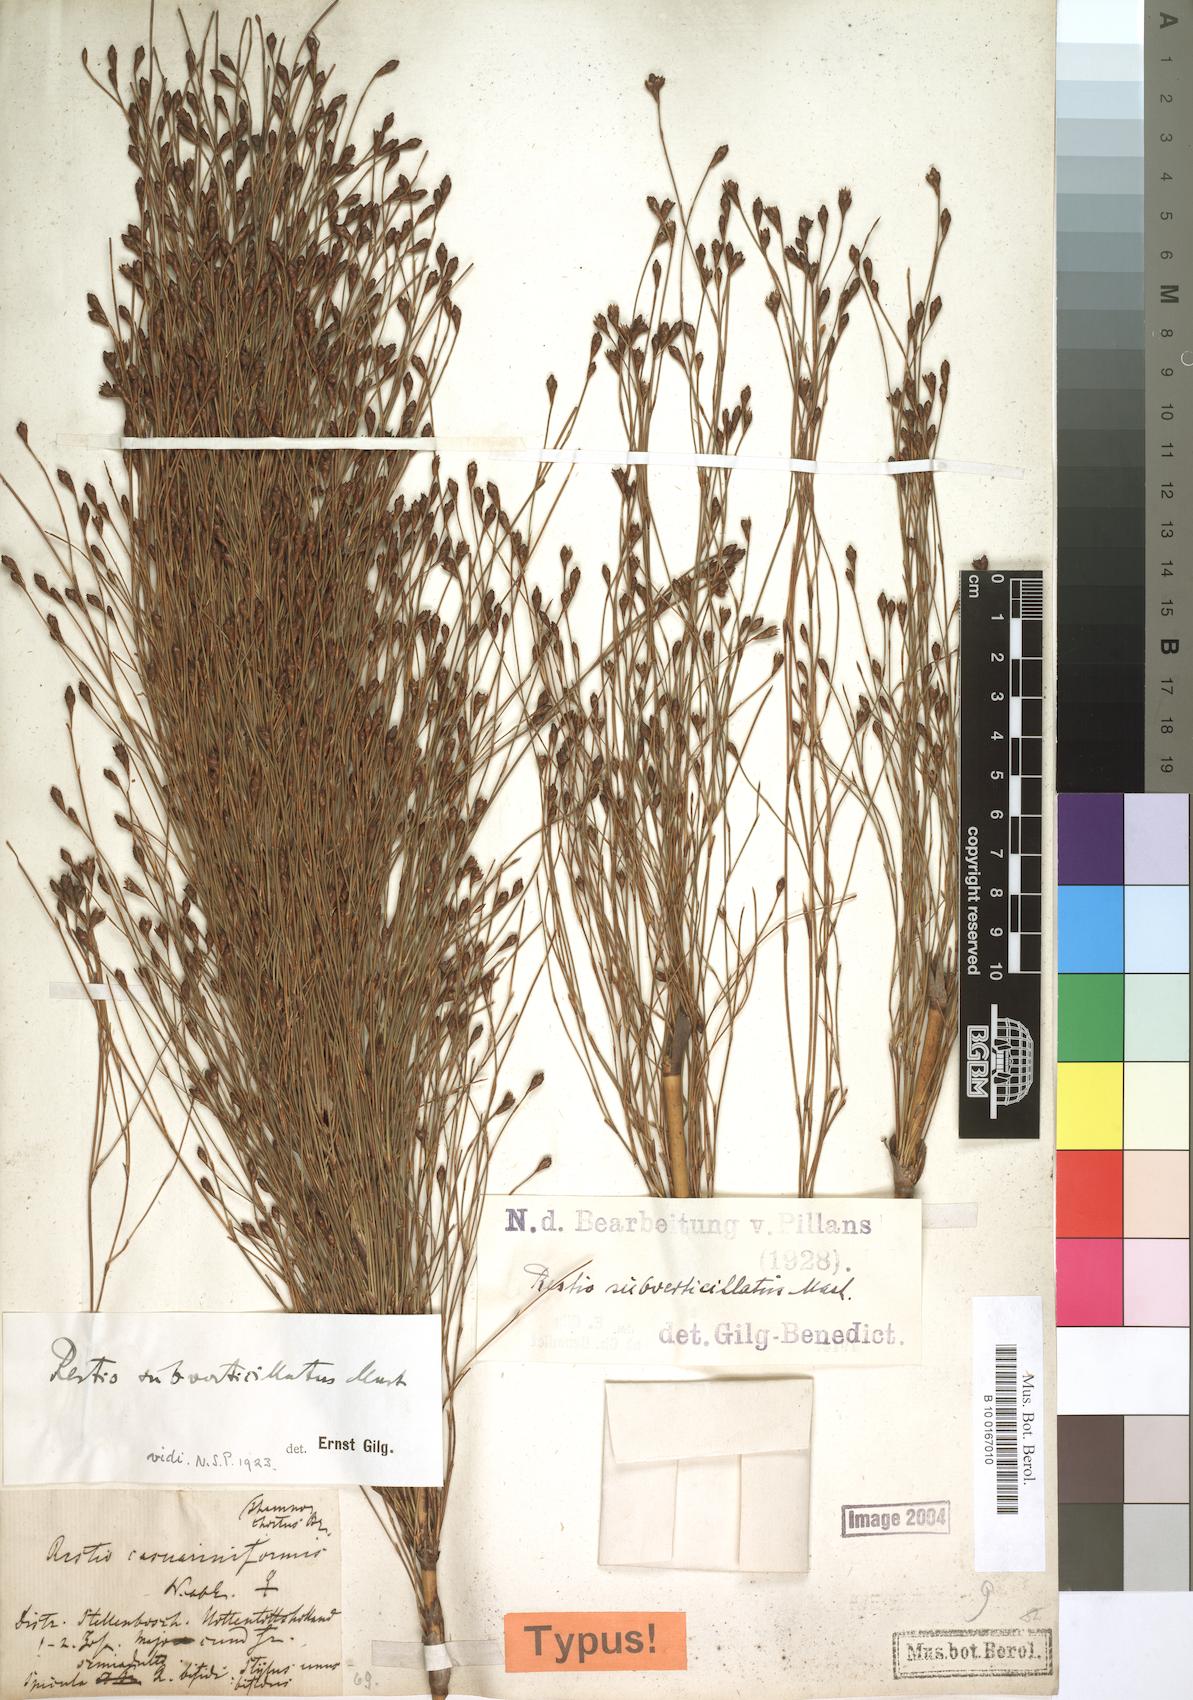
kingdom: Plantae
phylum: Tracheophyta
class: Liliopsida
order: Poales
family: Restionaceae
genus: Restio
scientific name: Restio subverticillatus
